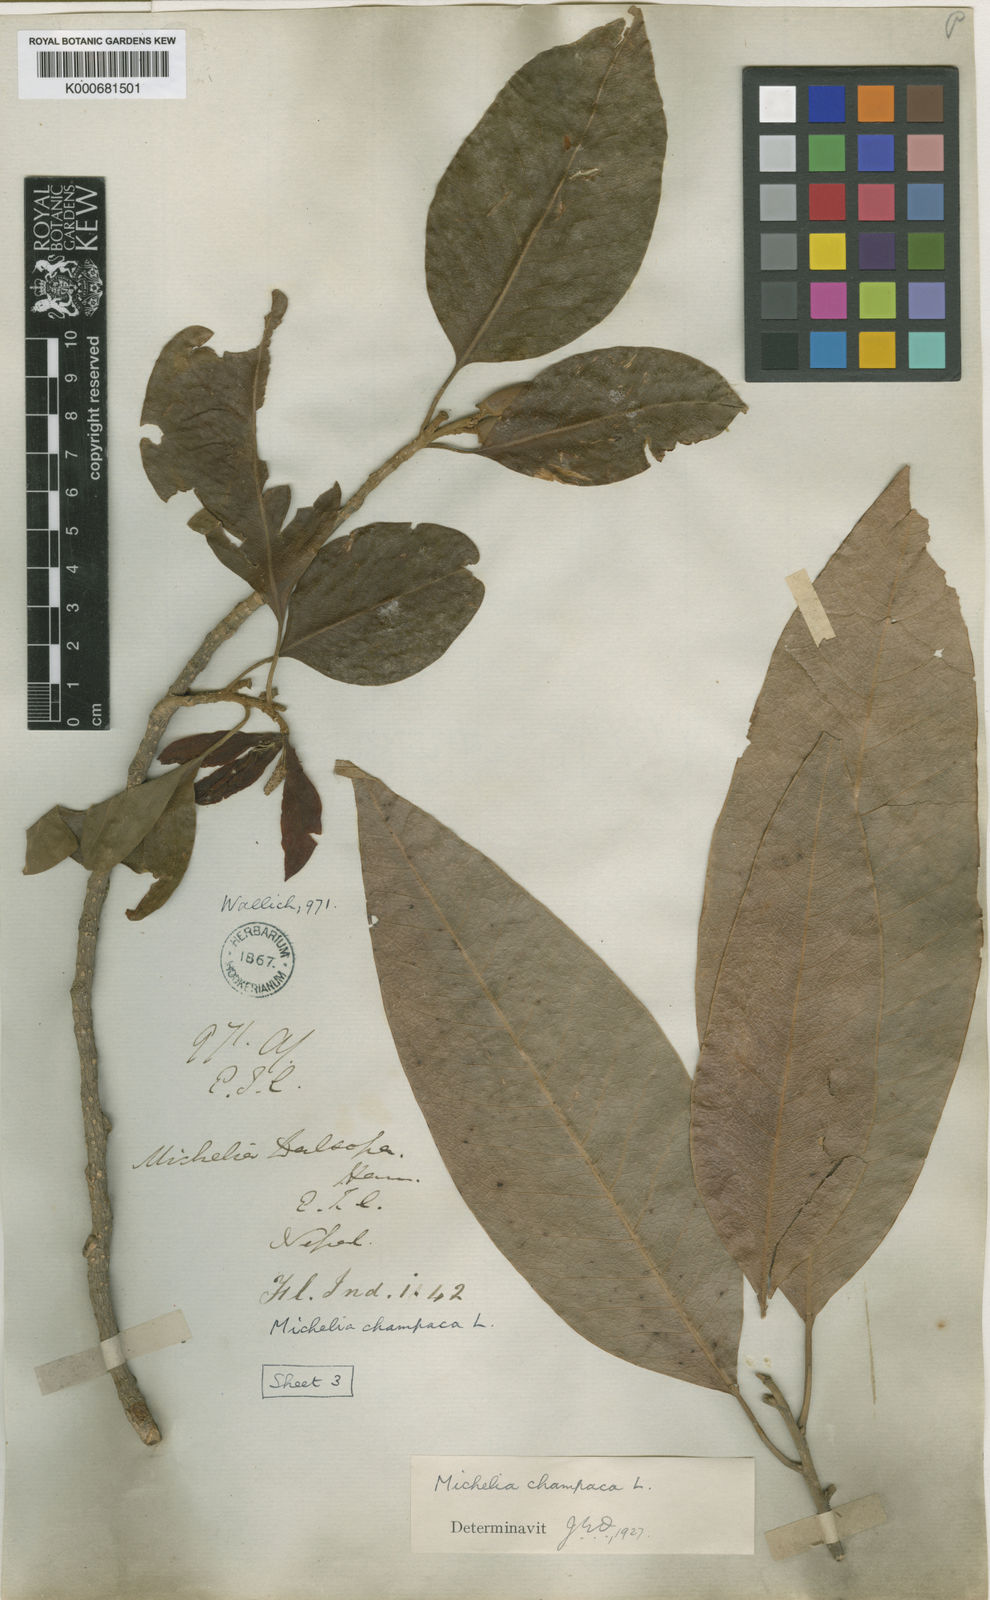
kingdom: Plantae
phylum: Tracheophyta
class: Magnoliopsida
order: Magnoliales
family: Magnoliaceae
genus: Magnolia
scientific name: Magnolia champaca
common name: Champak
